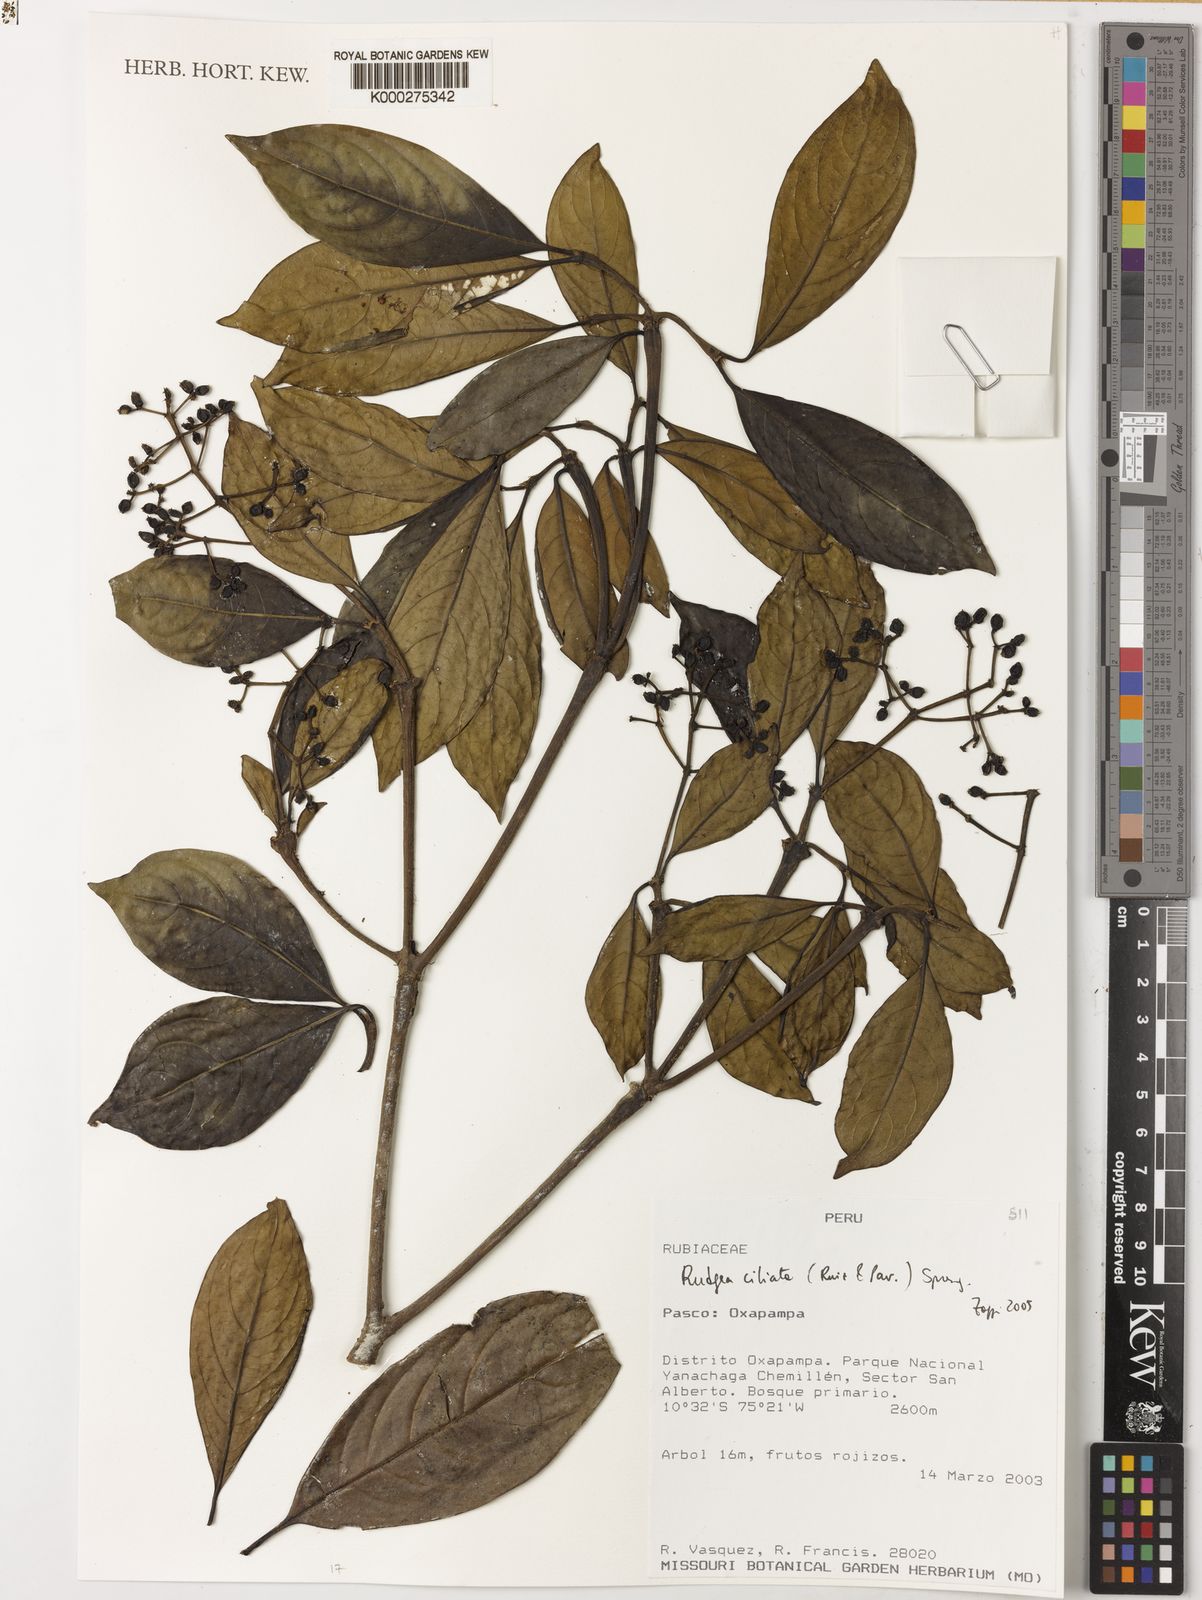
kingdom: Plantae
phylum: Tracheophyta
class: Magnoliopsida
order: Gentianales
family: Rubiaceae
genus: Rudgea
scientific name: Rudgea ciliata
